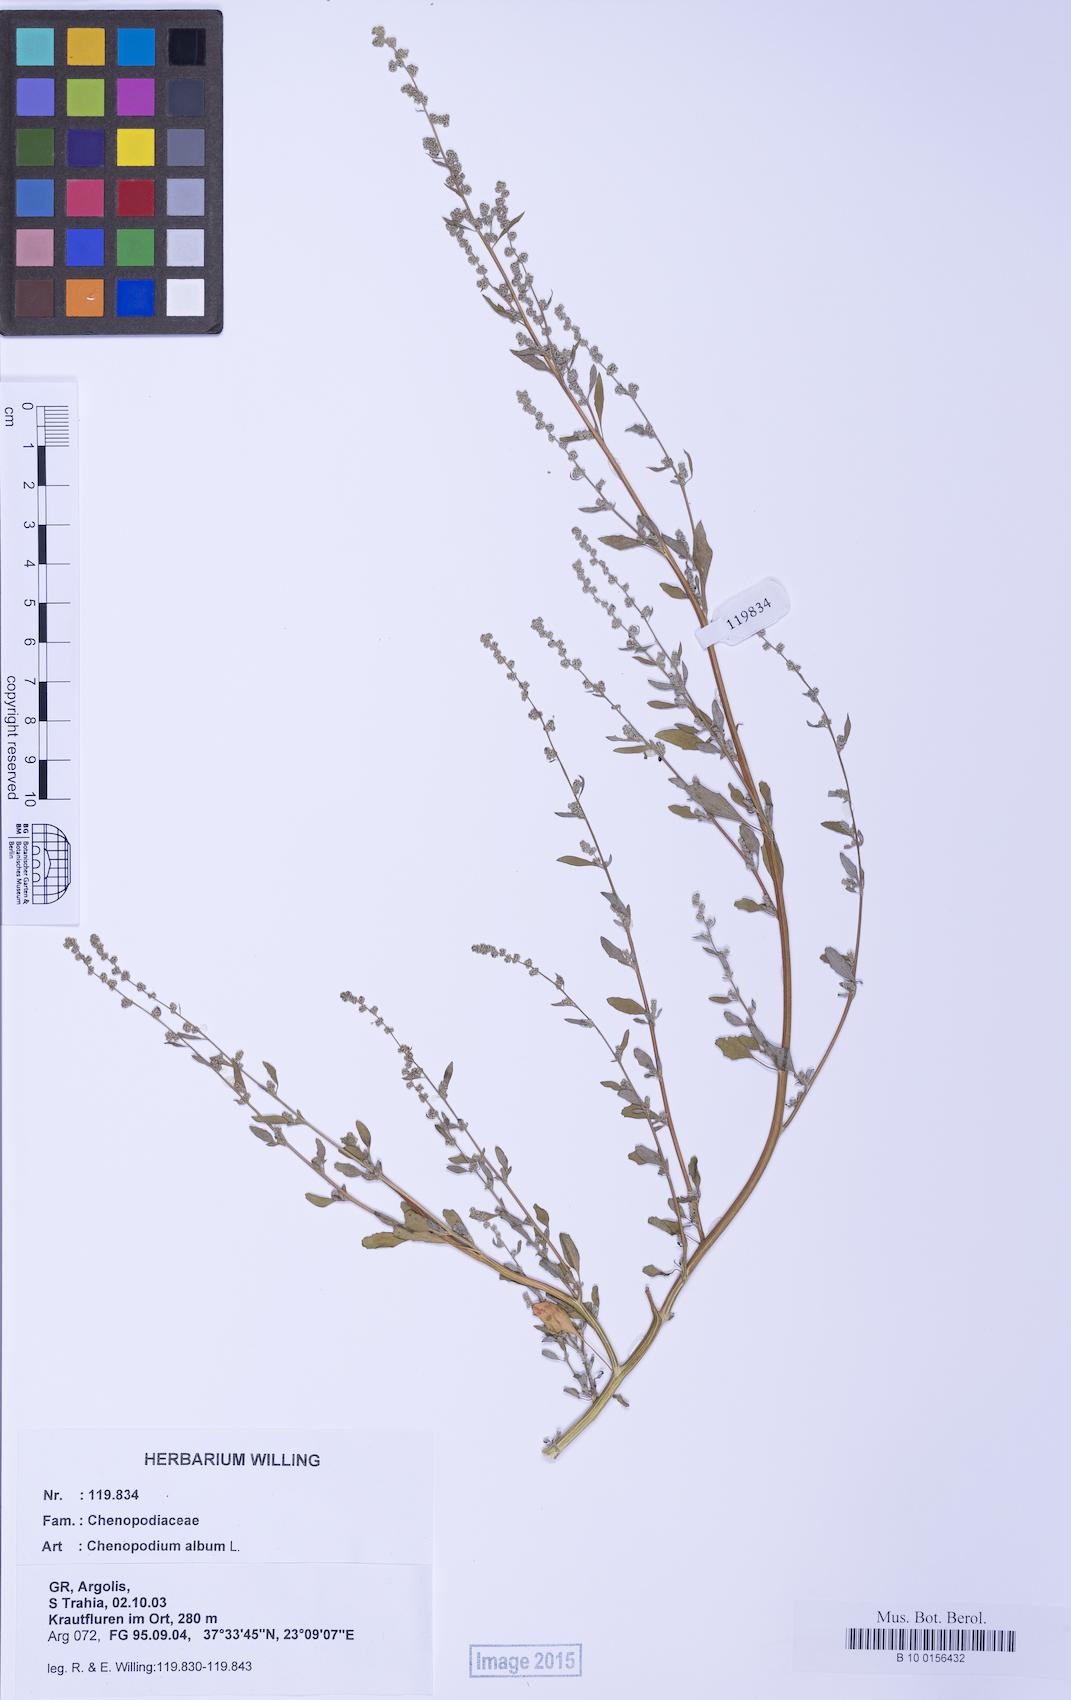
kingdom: Plantae
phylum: Tracheophyta
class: Magnoliopsida
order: Caryophyllales
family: Amaranthaceae
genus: Chenopodium
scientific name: Chenopodium album
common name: Fat-hen
